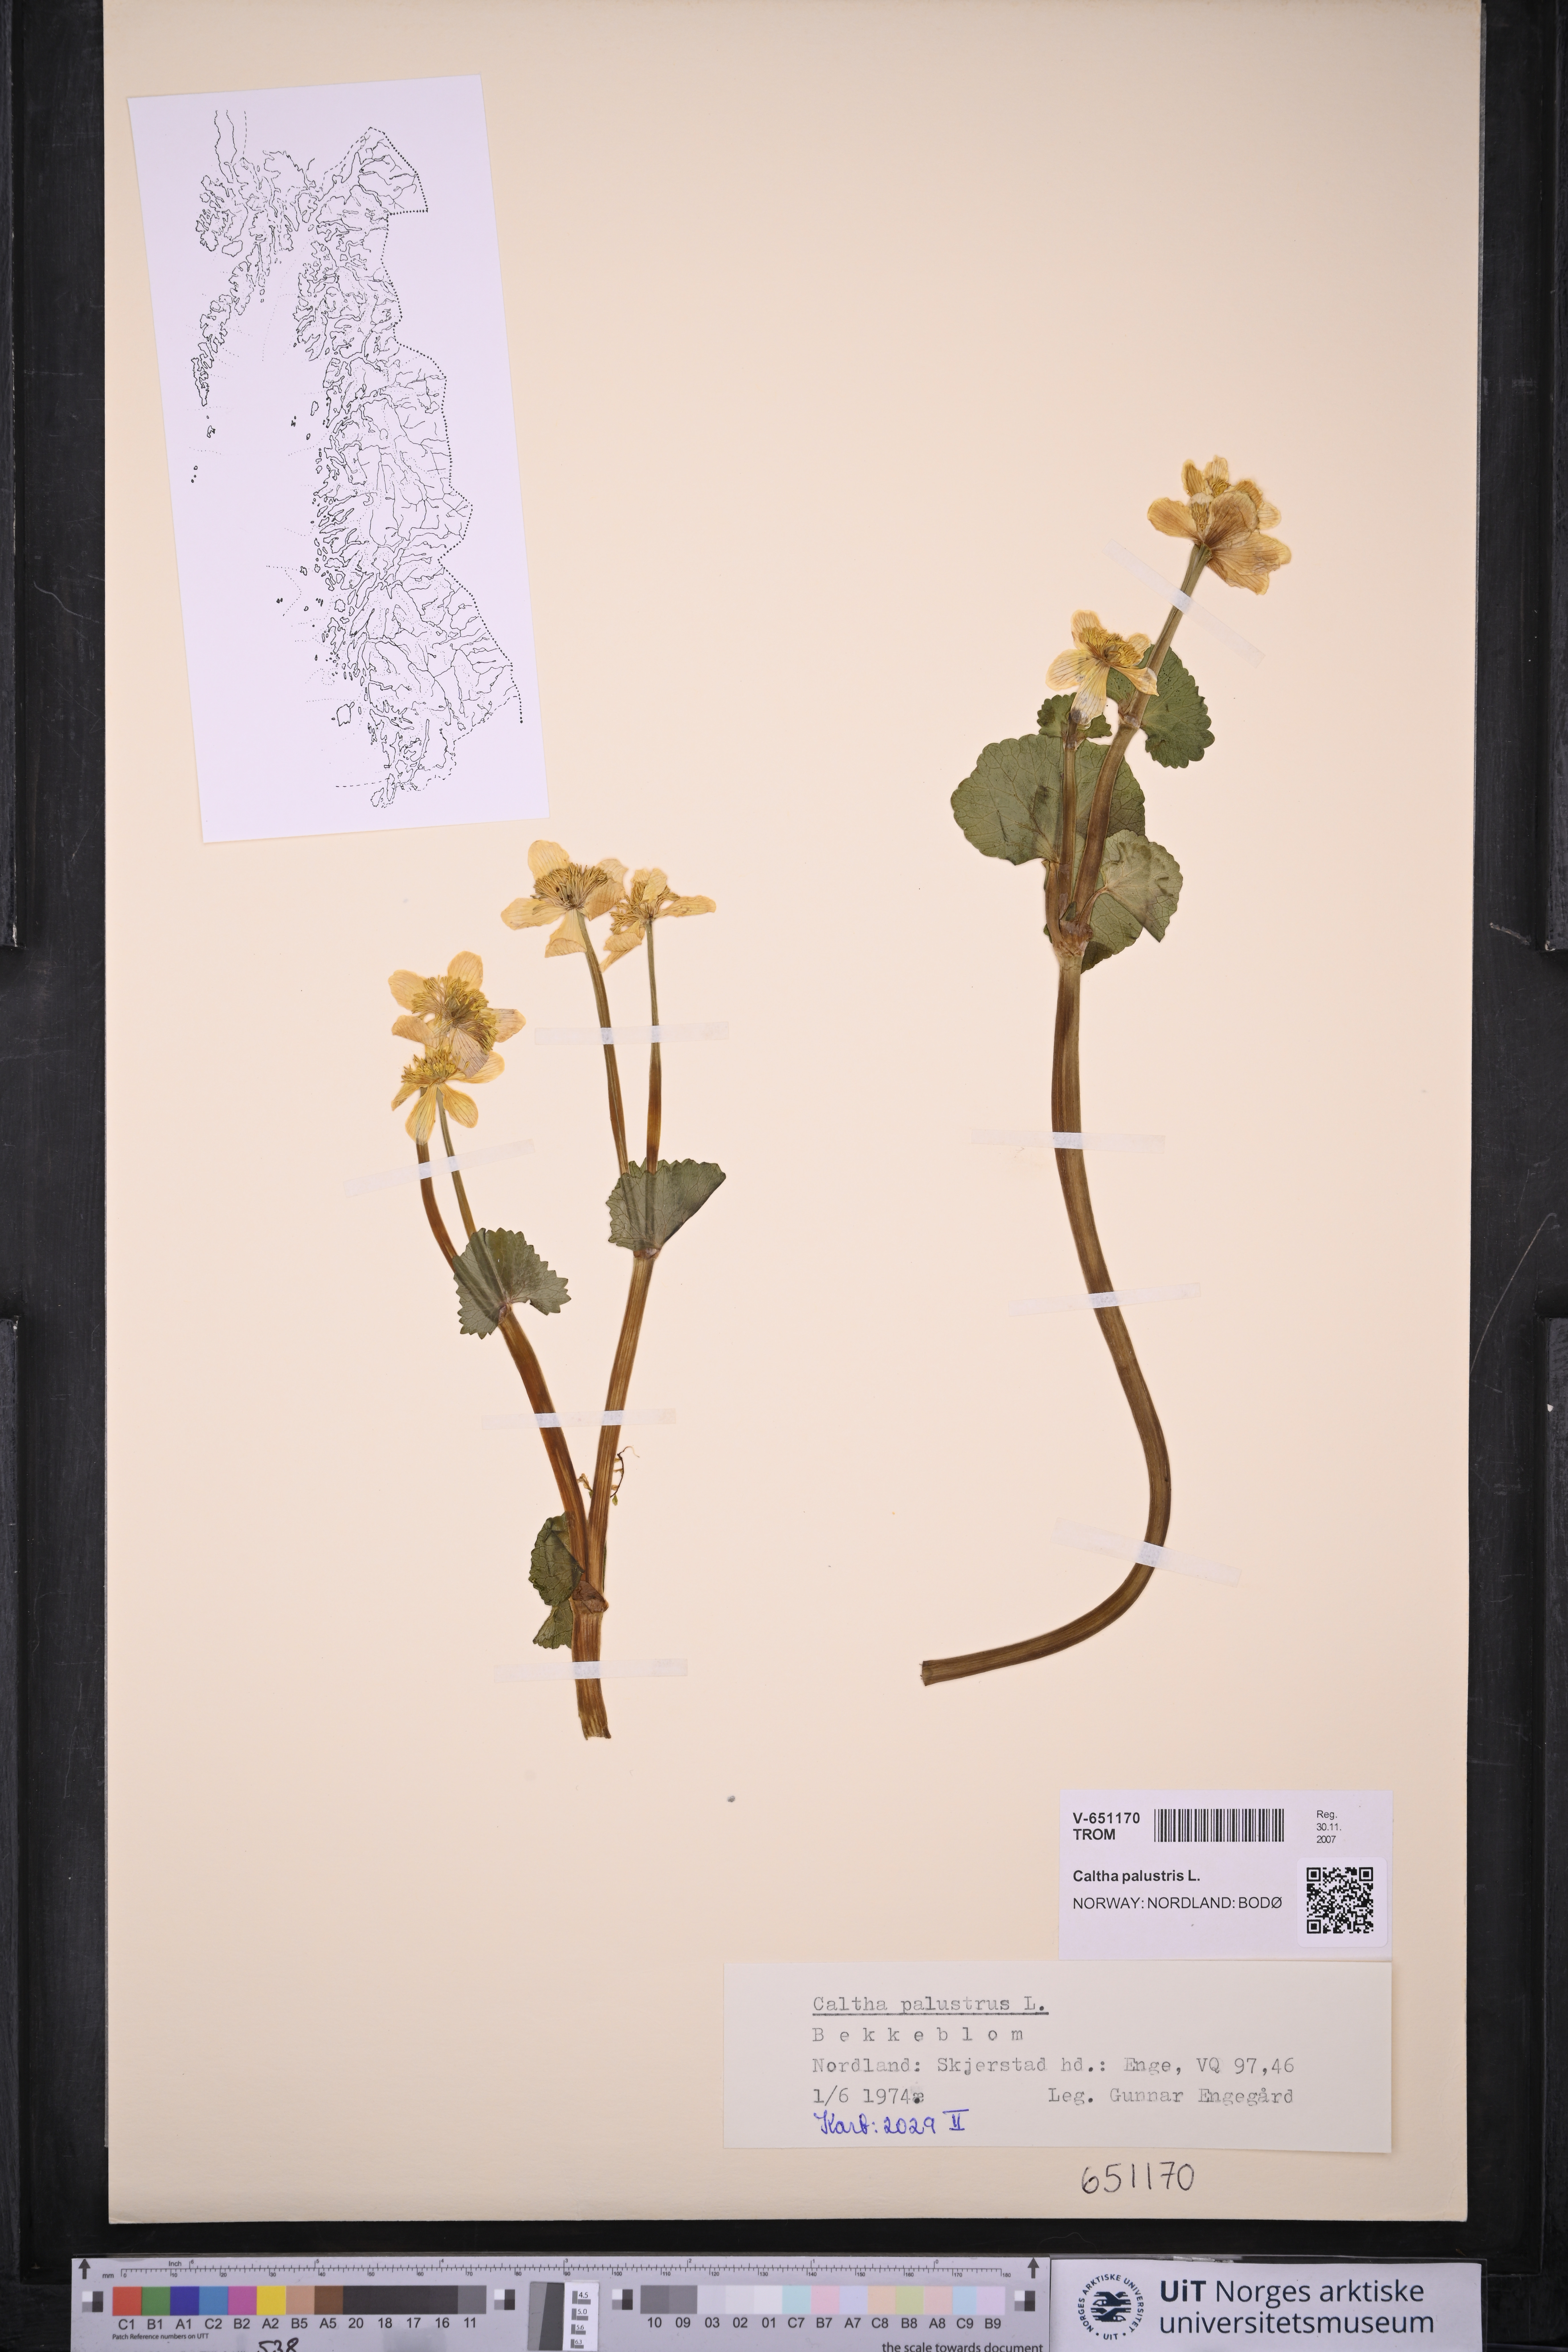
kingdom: Plantae
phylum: Tracheophyta
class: Magnoliopsida
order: Ranunculales
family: Ranunculaceae
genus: Caltha
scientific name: Caltha palustris
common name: Marsh marigold
